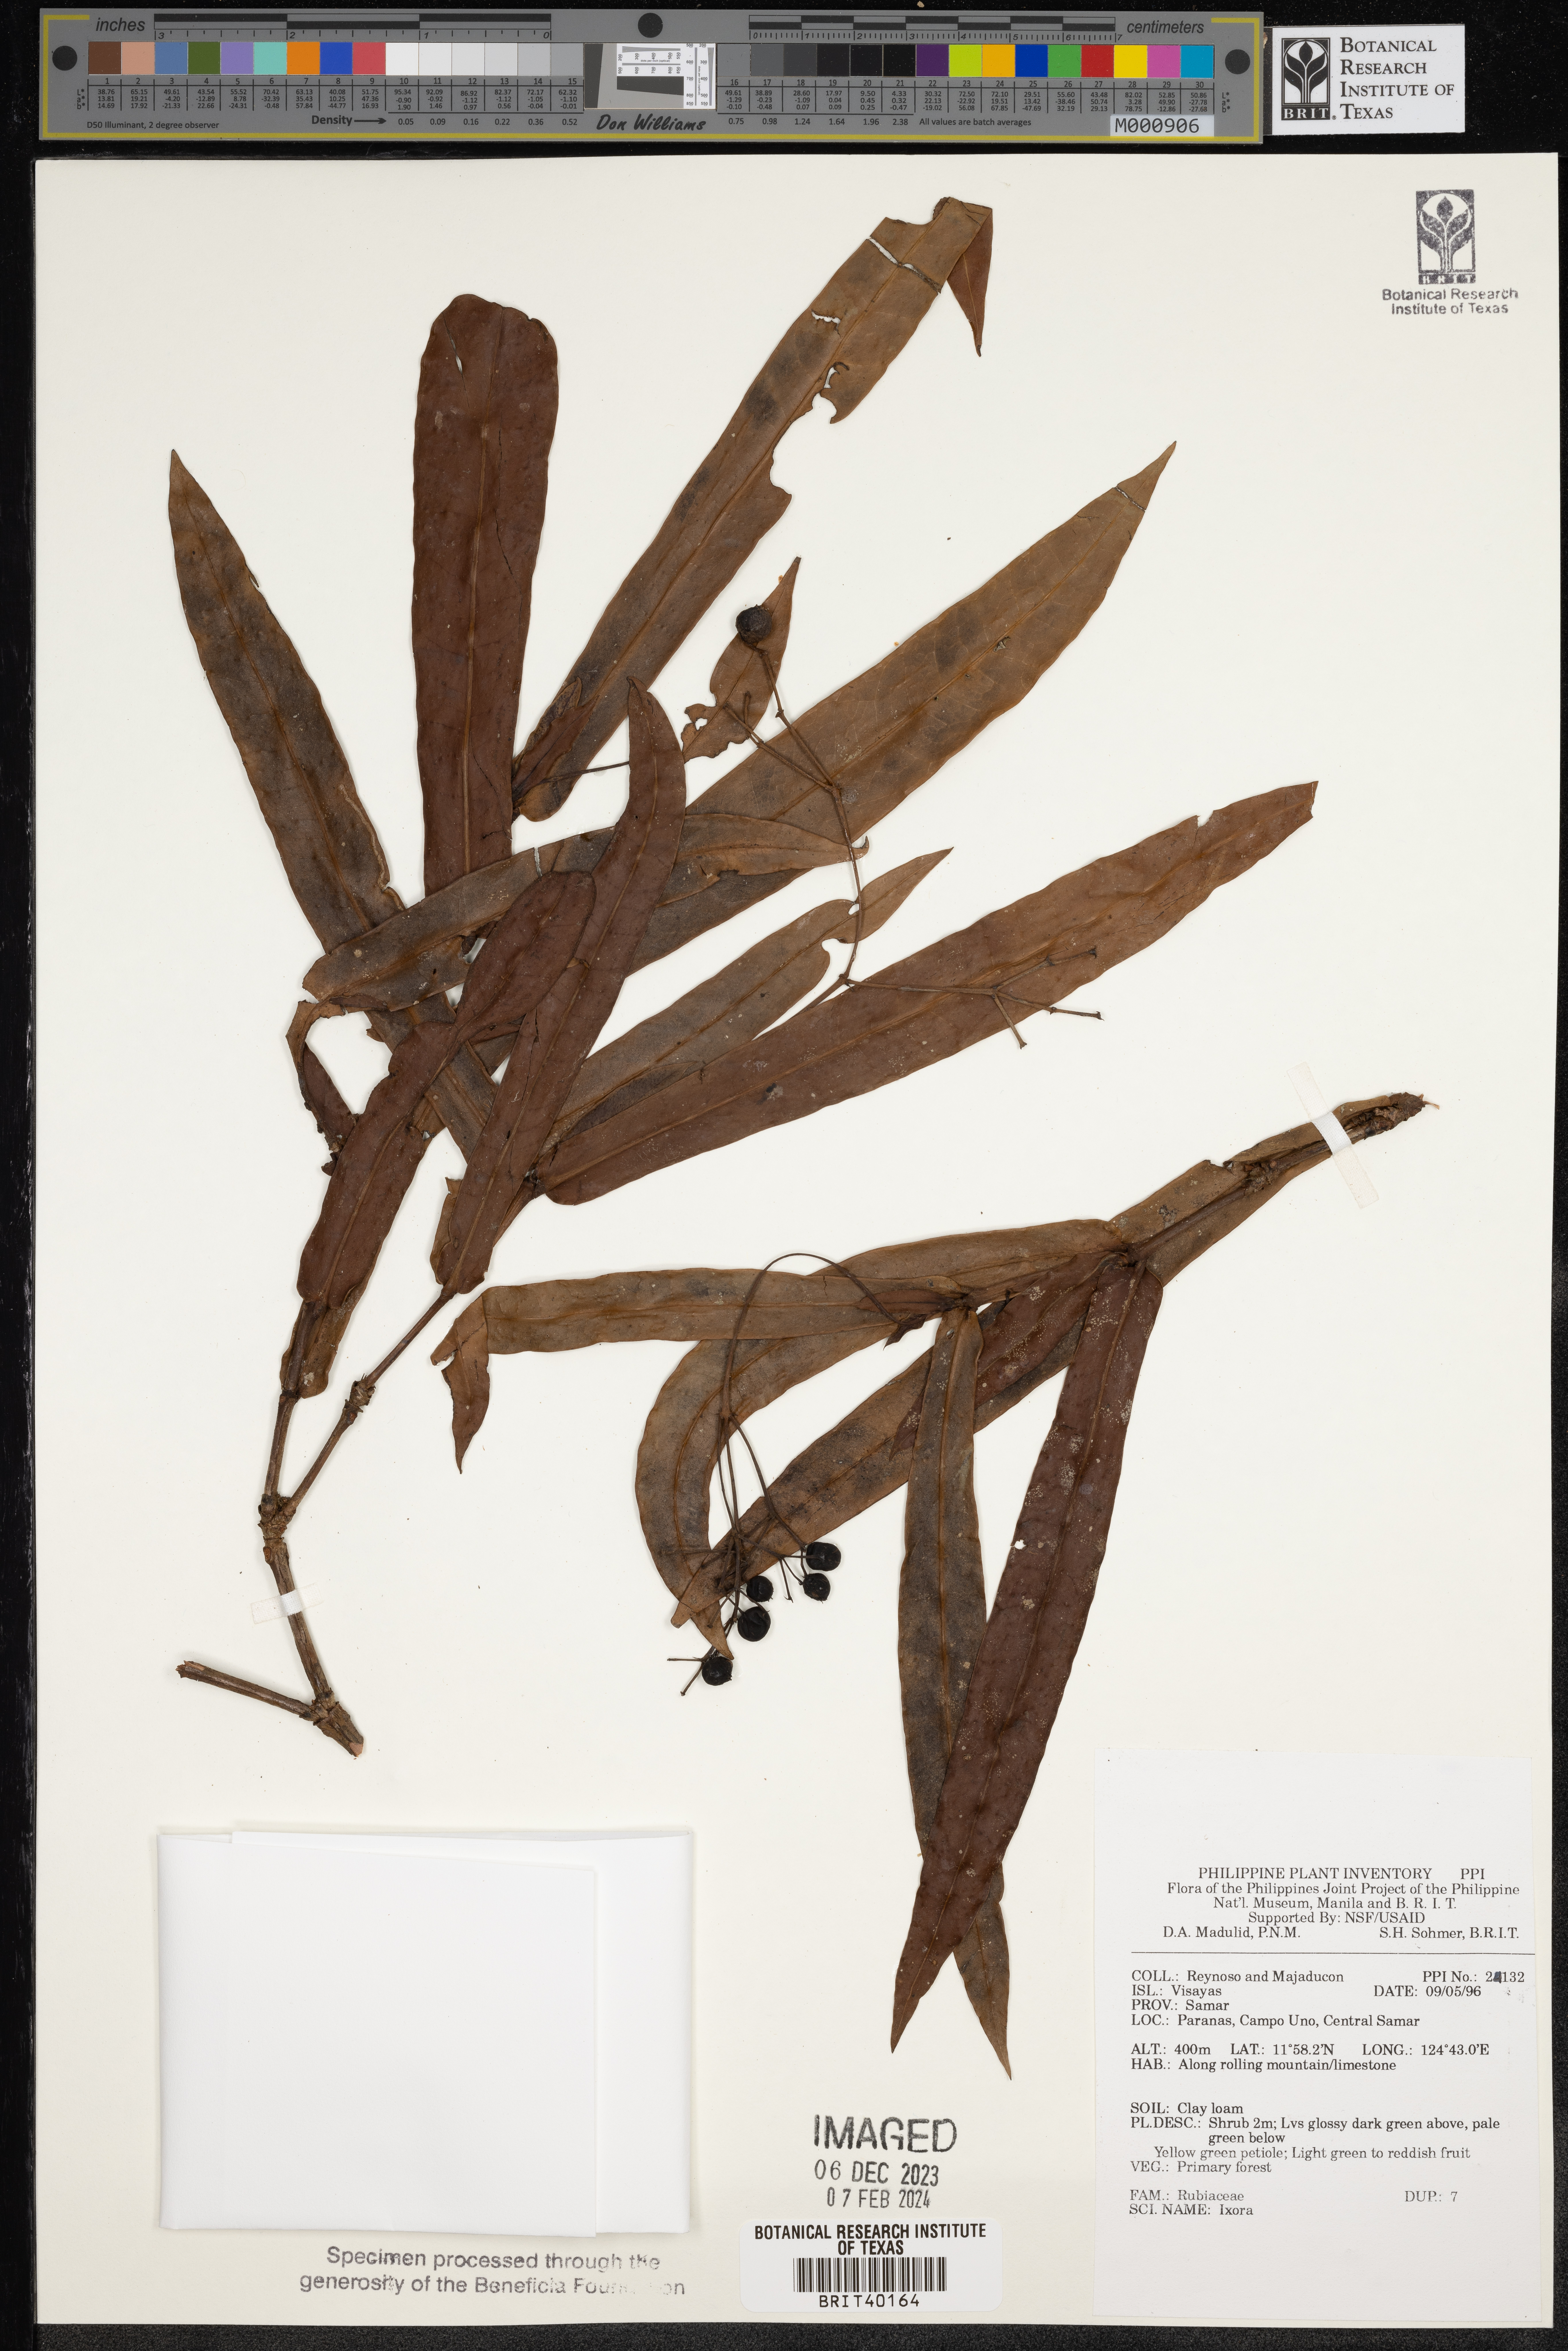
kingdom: Plantae
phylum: Tracheophyta
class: Magnoliopsida
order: Gentianales
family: Rubiaceae
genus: Ixora
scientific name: Ixora
